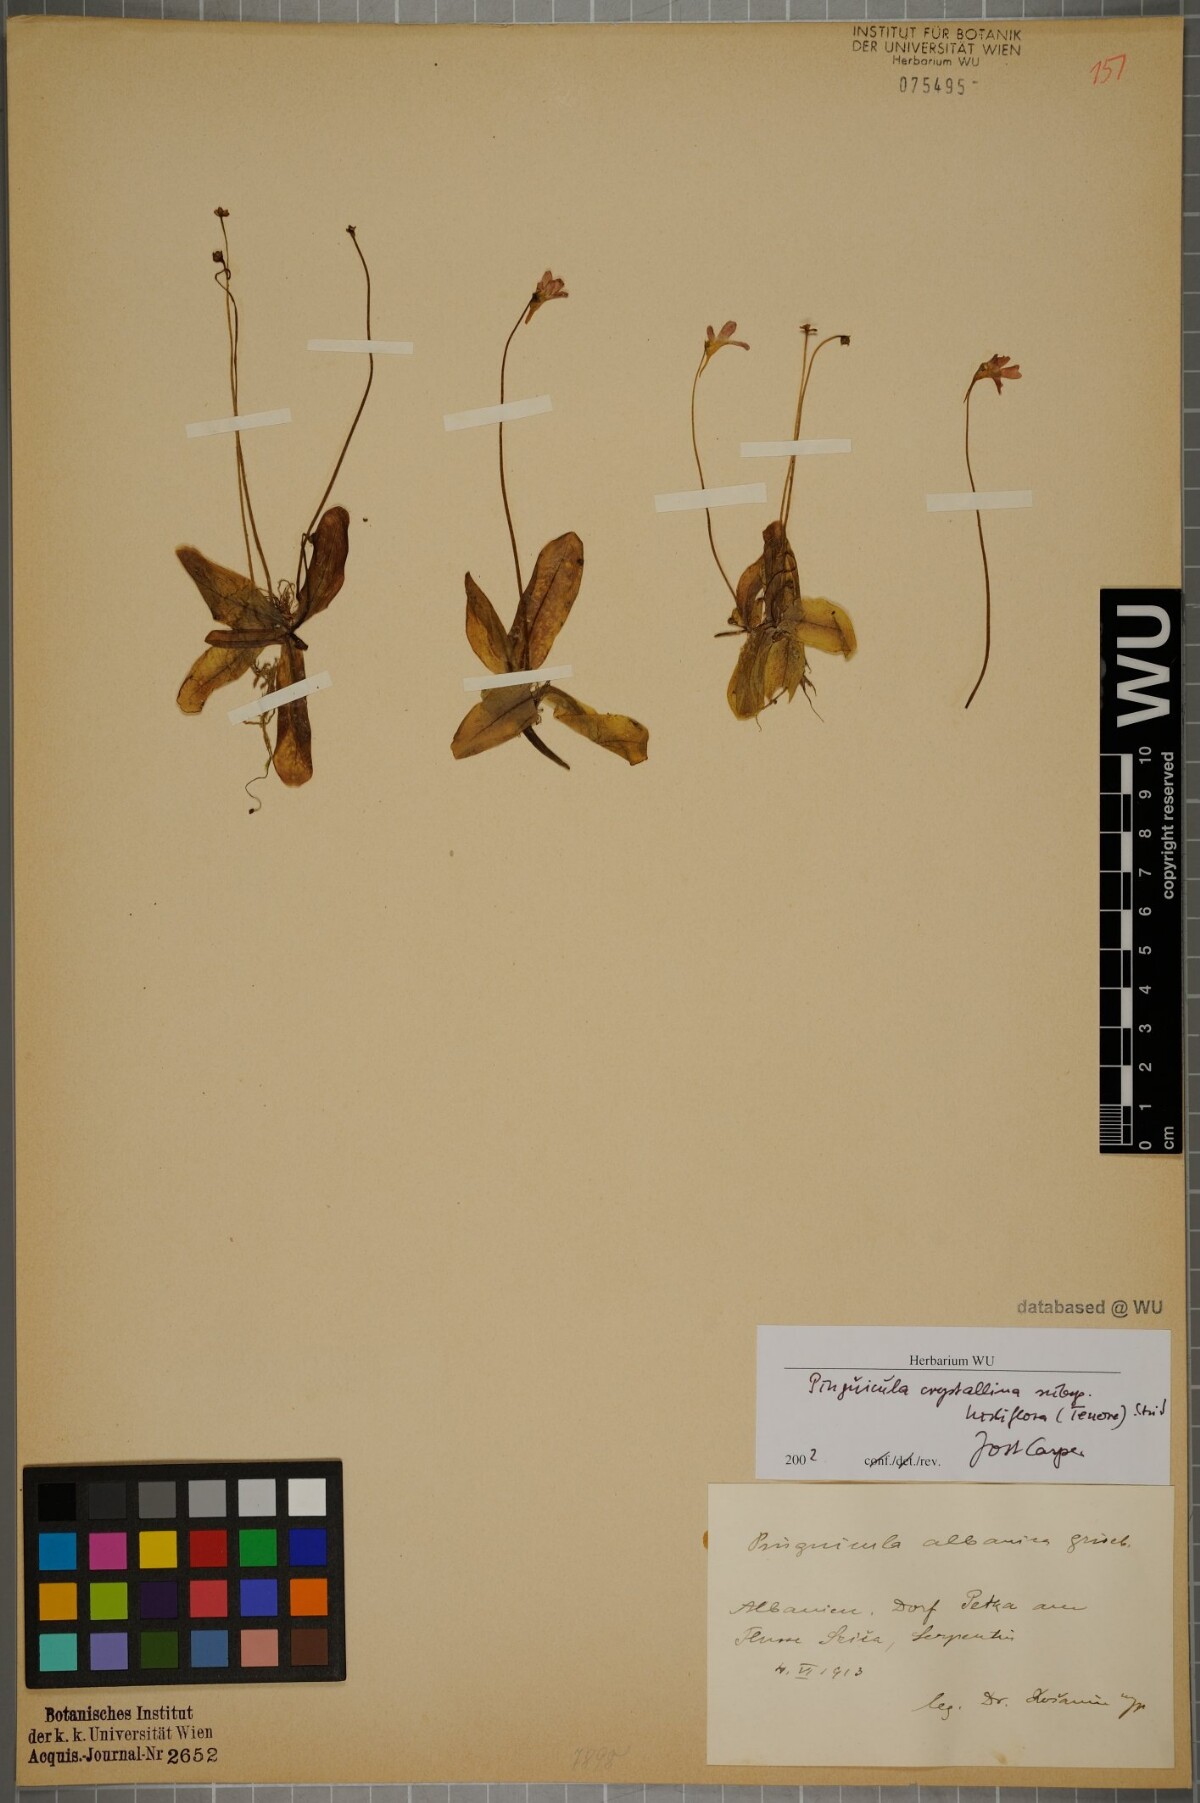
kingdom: Plantae
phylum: Tracheophyta
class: Magnoliopsida
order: Lamiales
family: Lentibulariaceae
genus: Pinguicula
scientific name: Pinguicula crystallina
